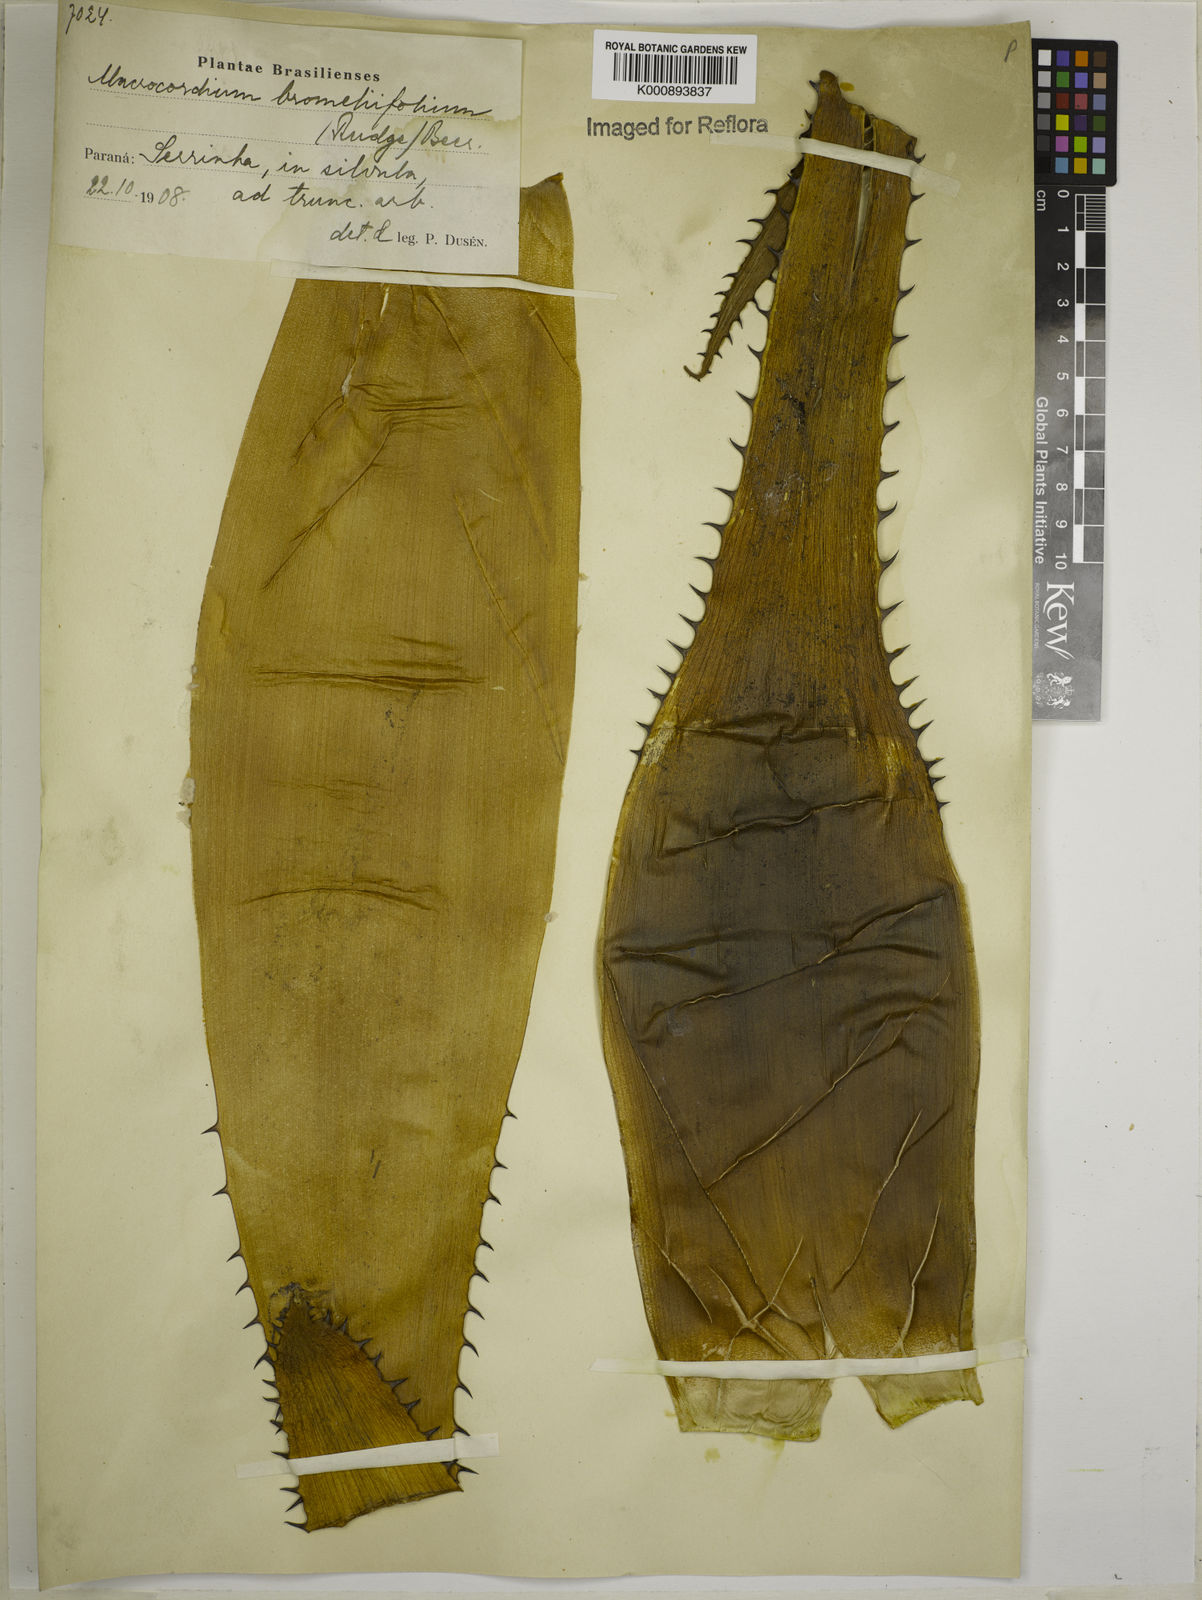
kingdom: Plantae
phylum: Tracheophyta
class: Liliopsida
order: Poales
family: Bromeliaceae
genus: Aechmea
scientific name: Aechmea
